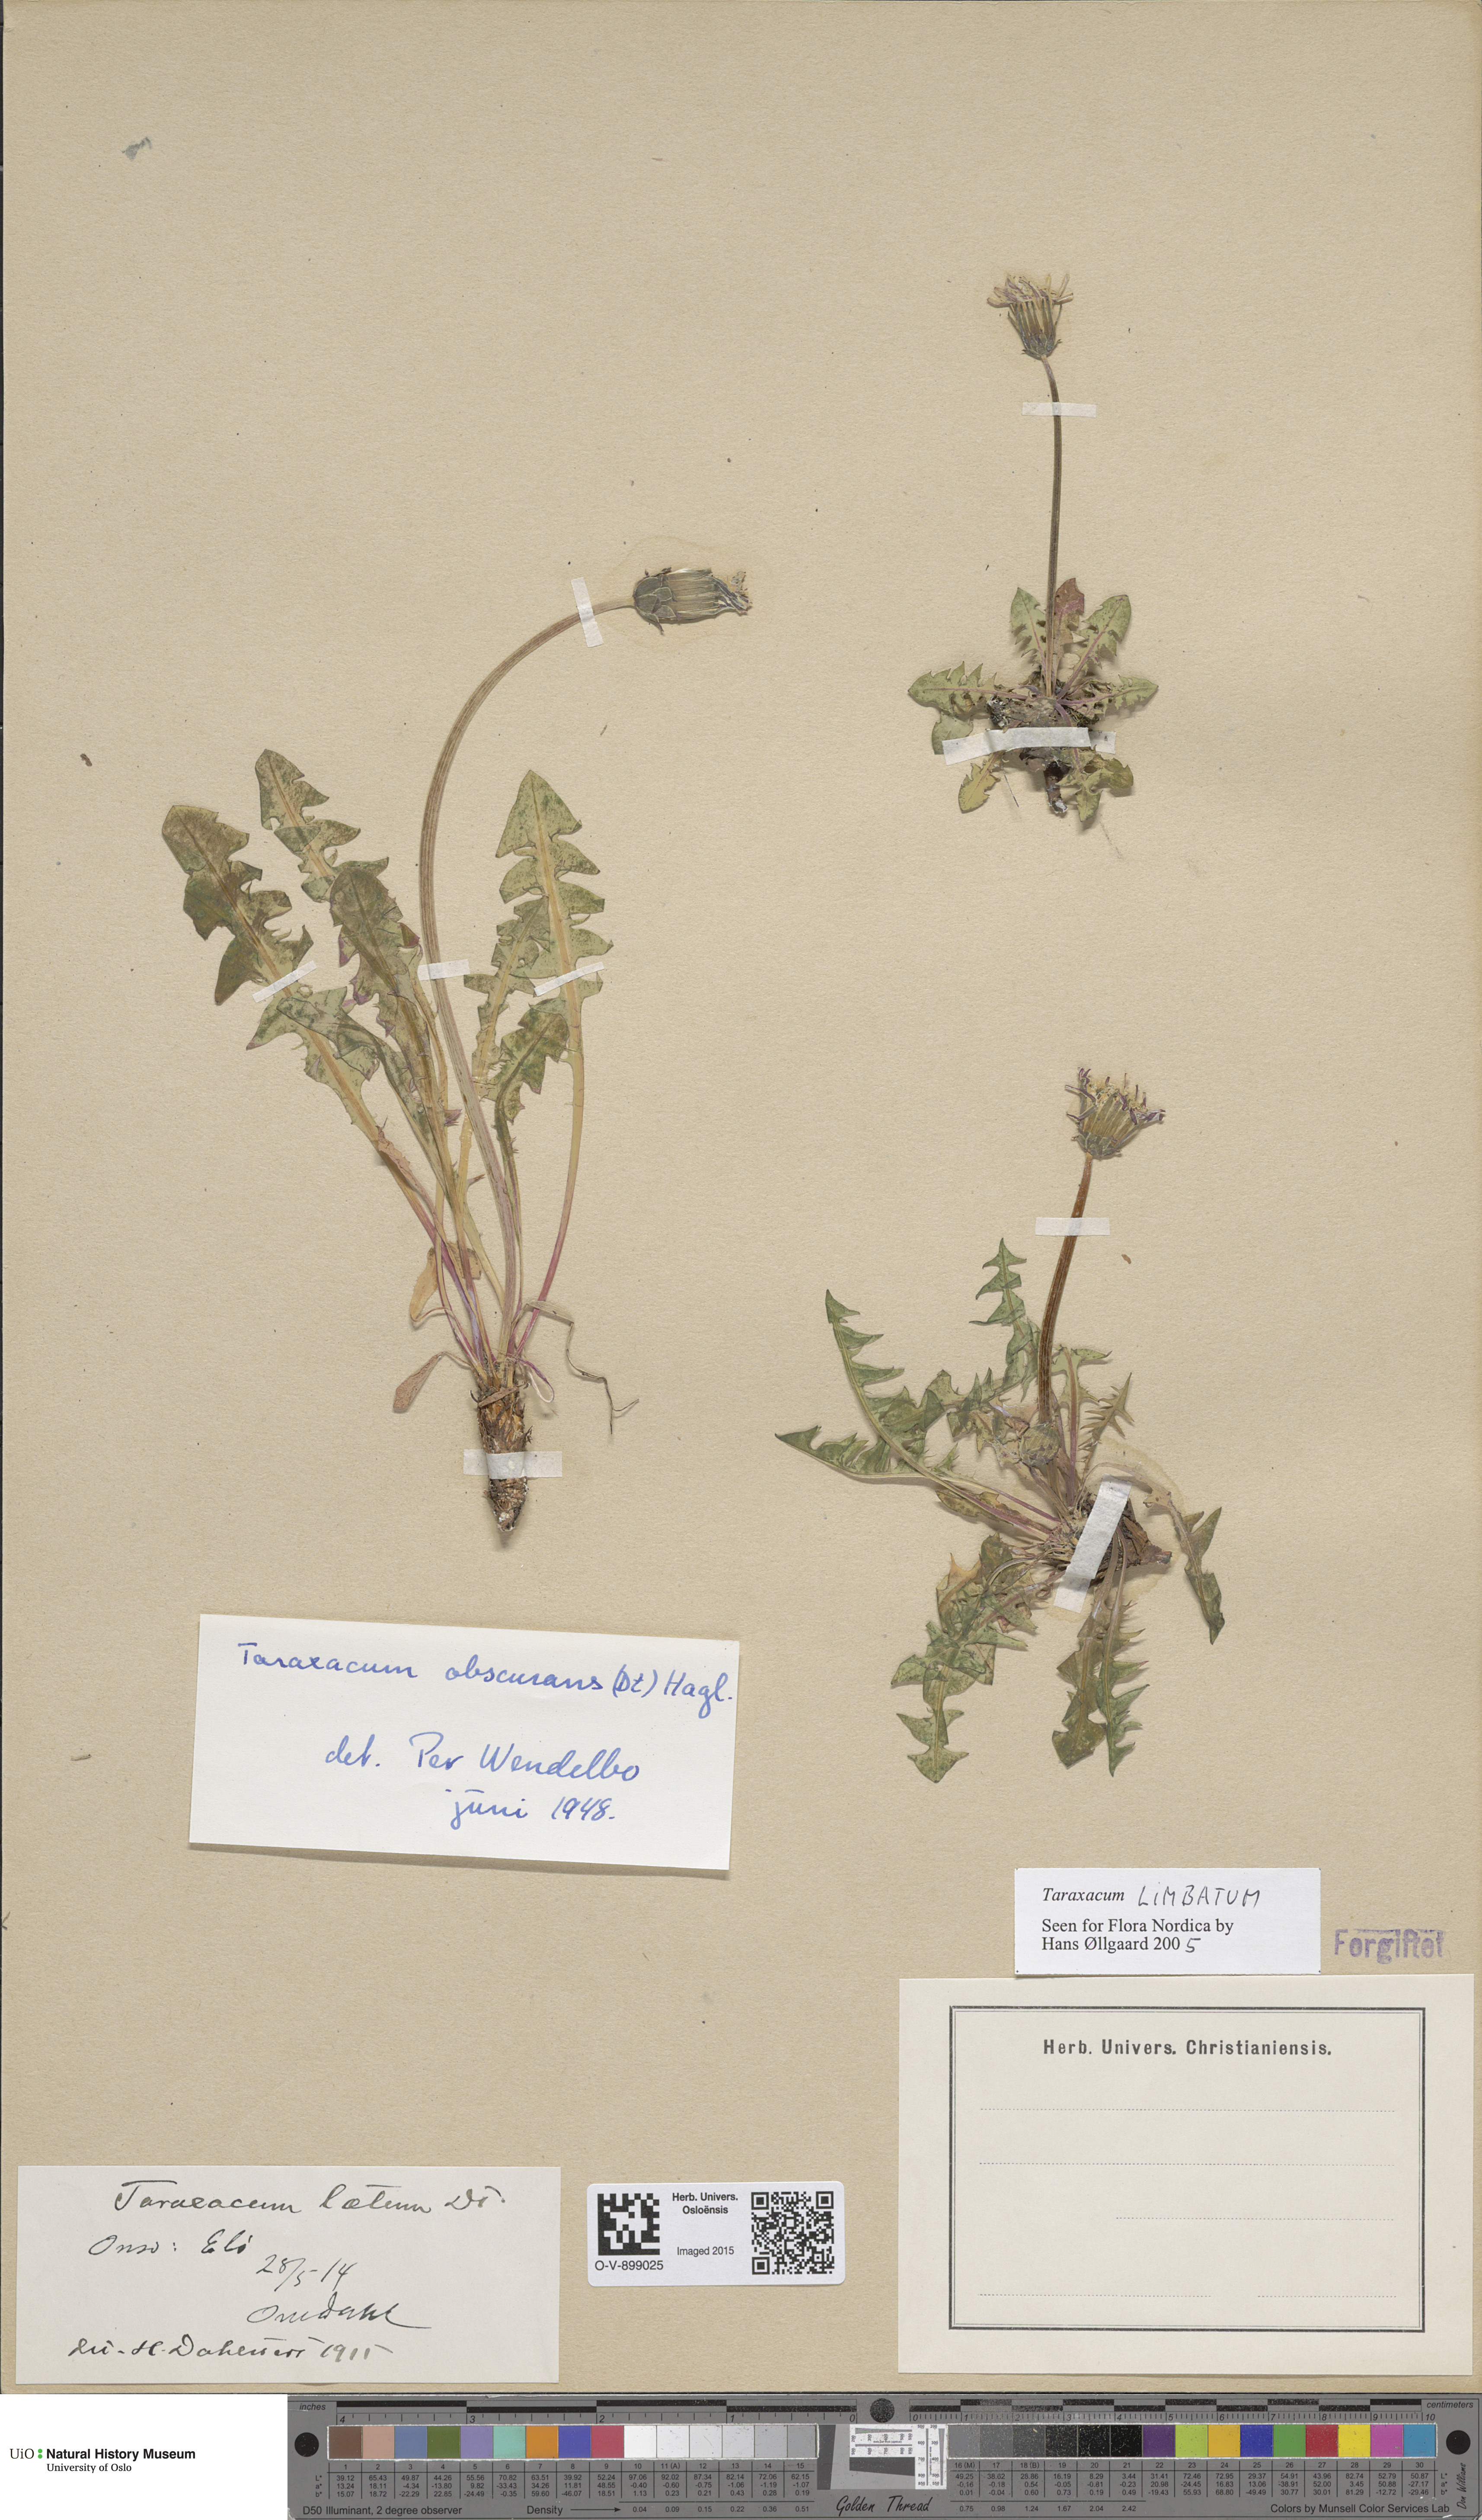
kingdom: Plantae
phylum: Tracheophyta
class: Magnoliopsida
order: Asterales
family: Asteraceae
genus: Taraxacum
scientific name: Taraxacum limbatum
